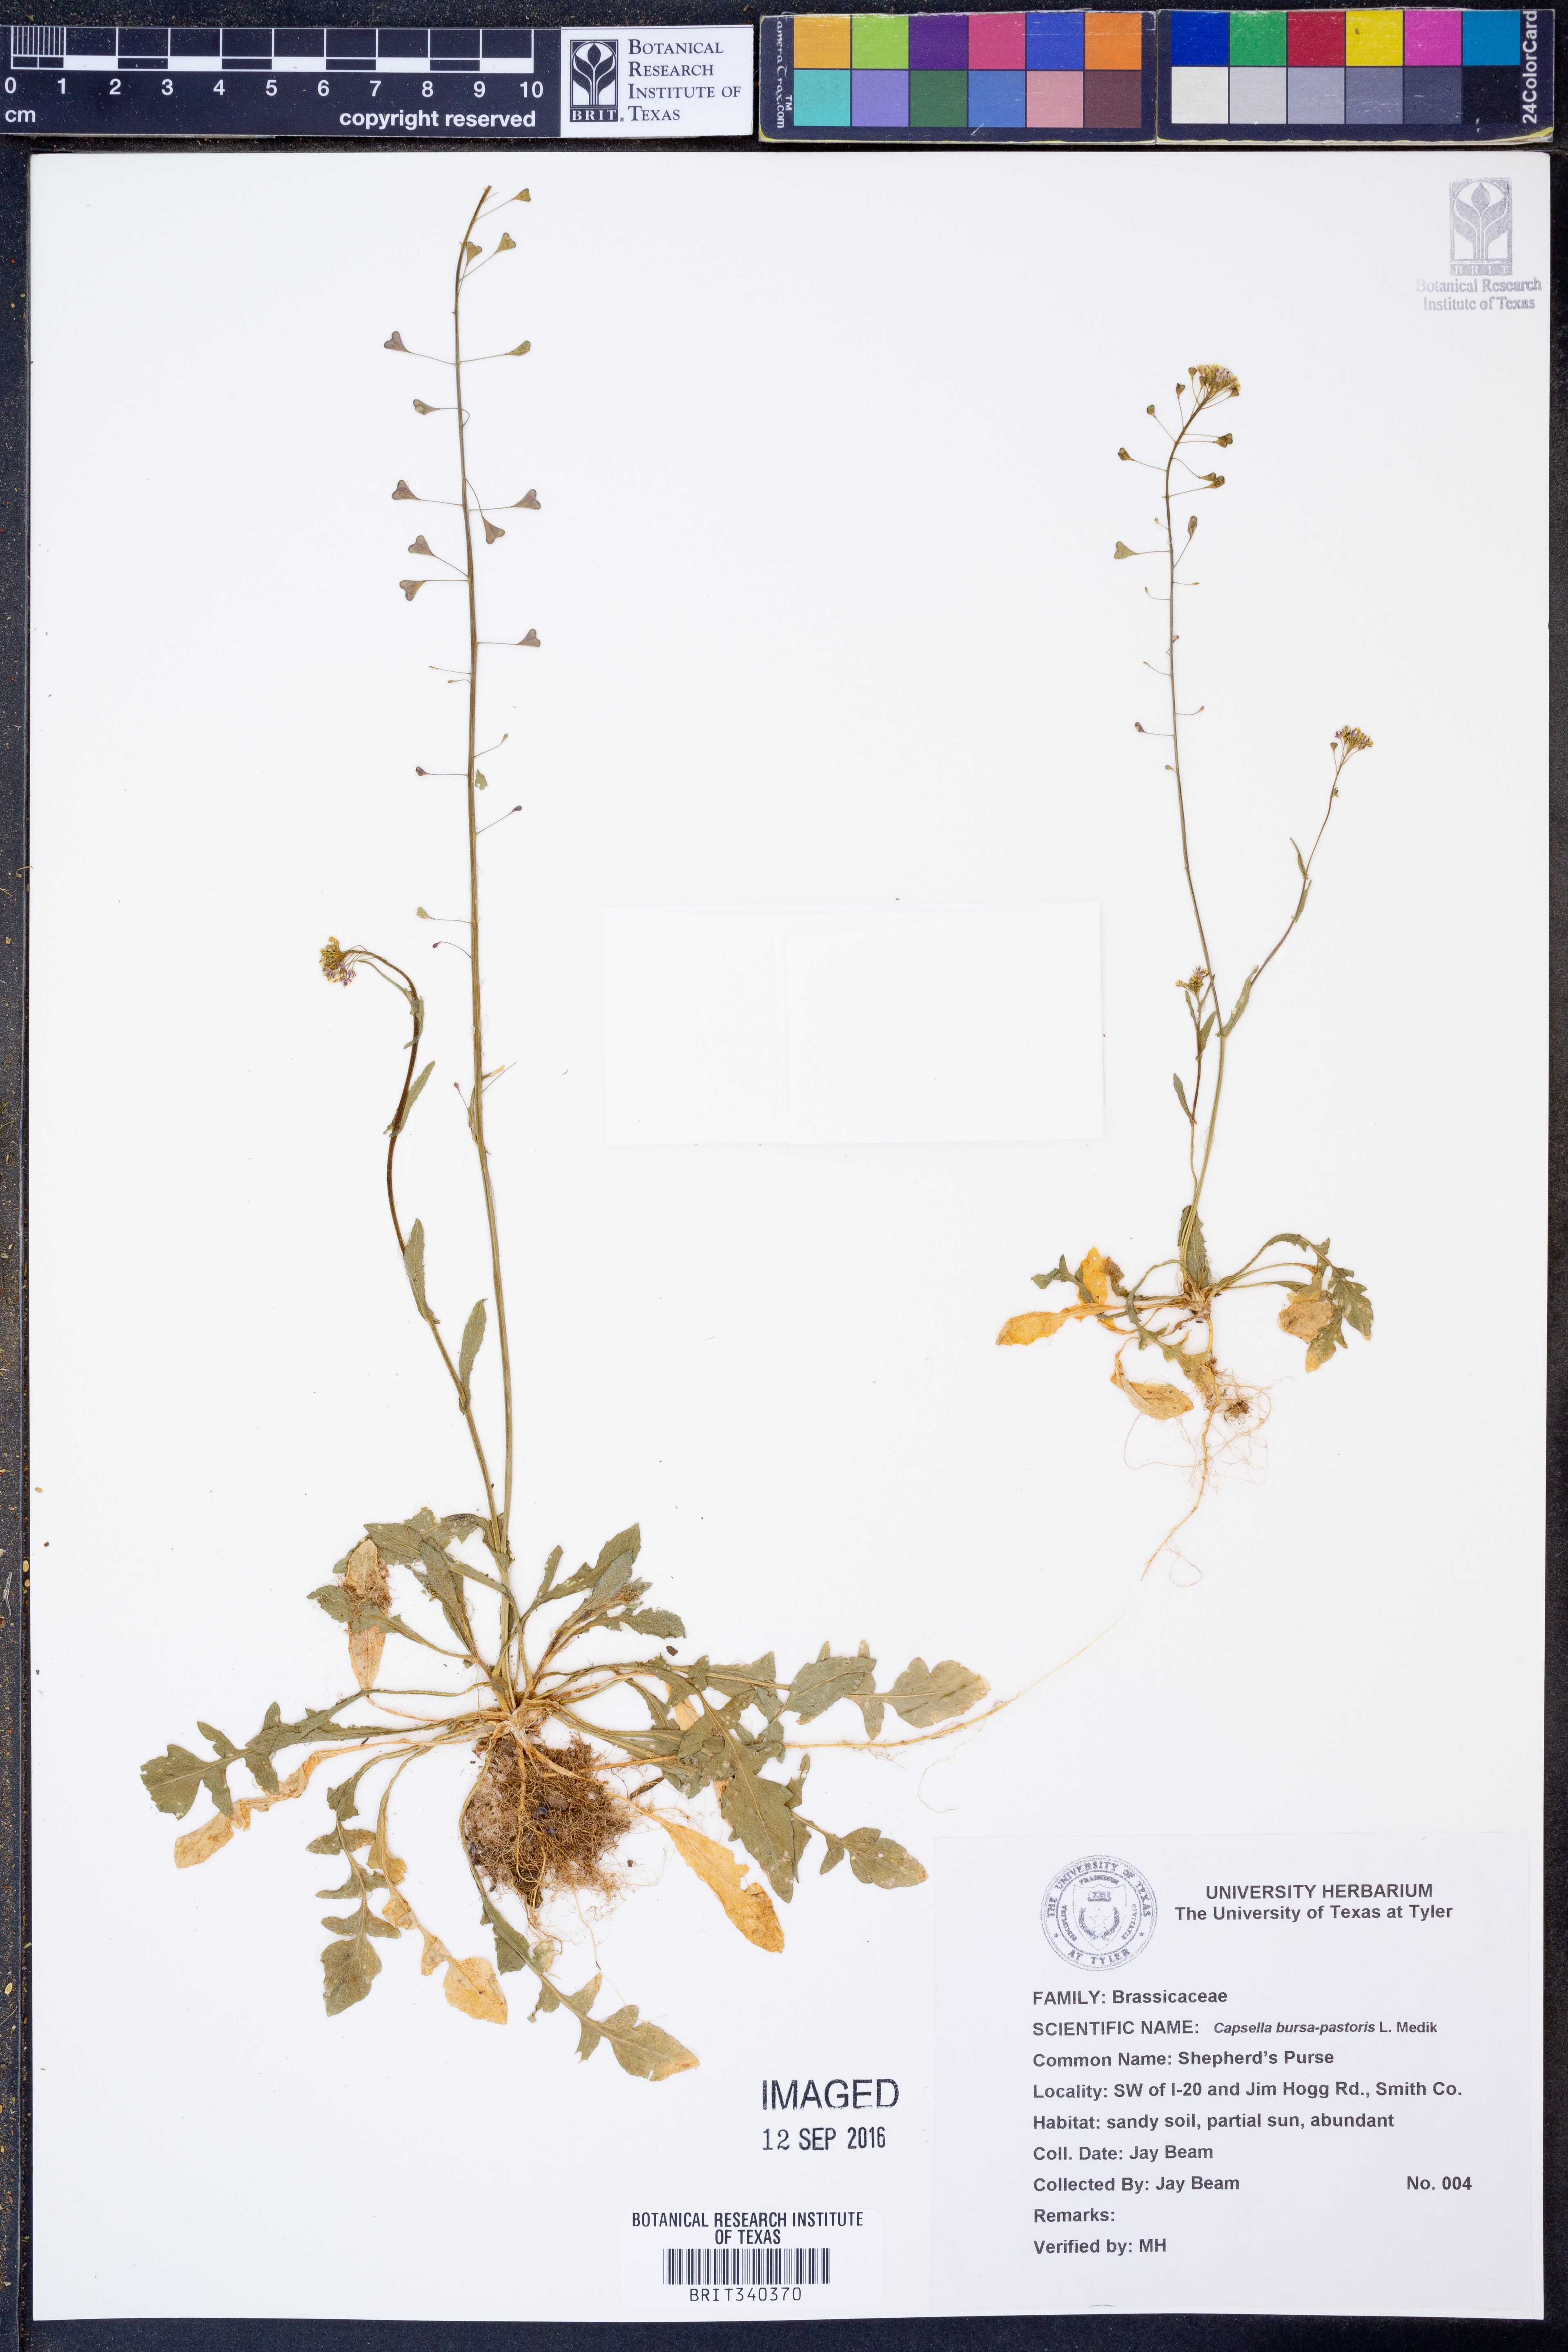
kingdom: Plantae
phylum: Tracheophyta
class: Magnoliopsida
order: Brassicales
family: Brassicaceae
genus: Capsella
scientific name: Capsella bursa-pastoris
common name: Shepherd's purse
